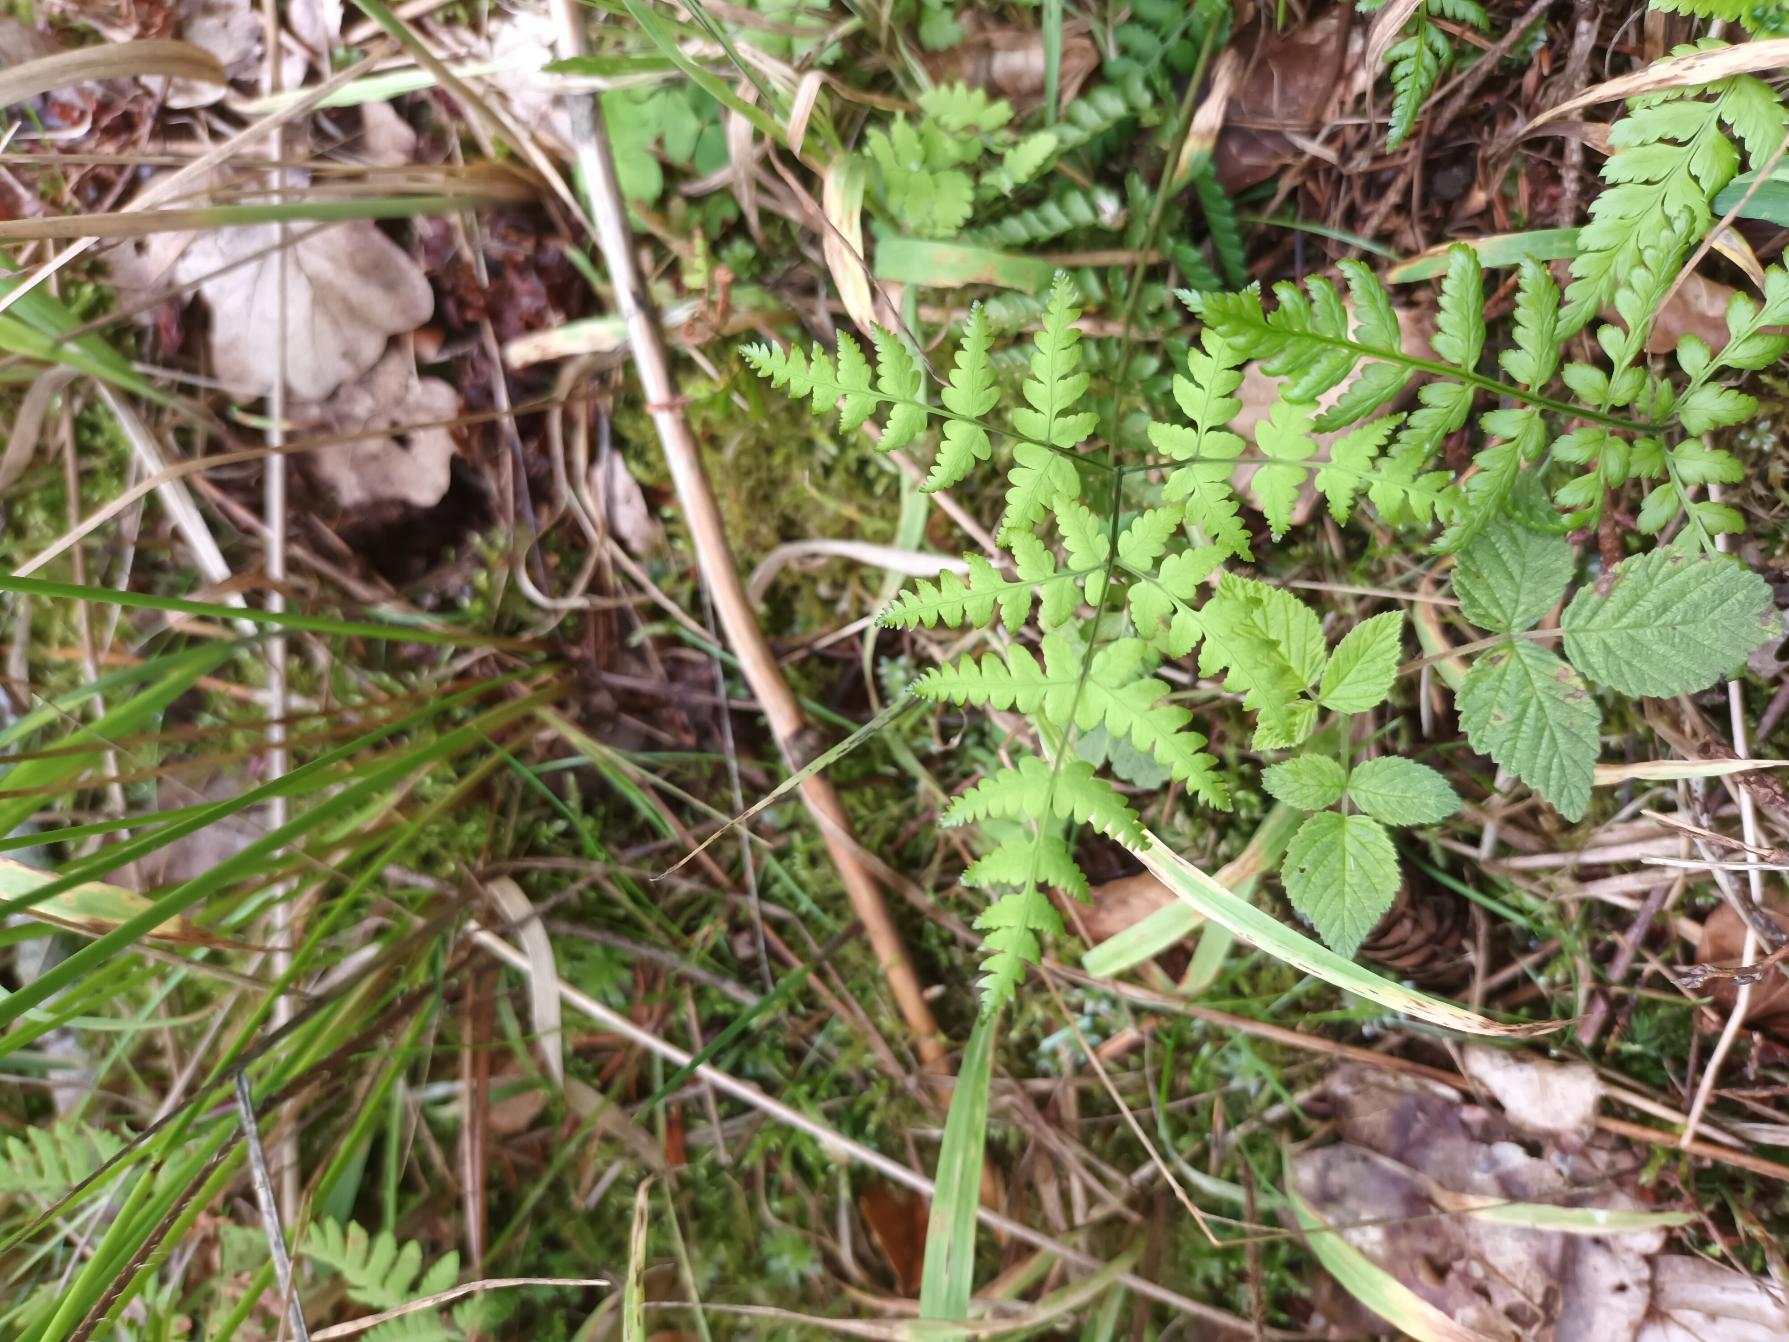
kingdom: Plantae
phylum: Tracheophyta
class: Polypodiopsida
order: Polypodiales
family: Cystopteridaceae
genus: Gymnocarpium
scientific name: Gymnocarpium dryopteris
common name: Tredelt egebregne
